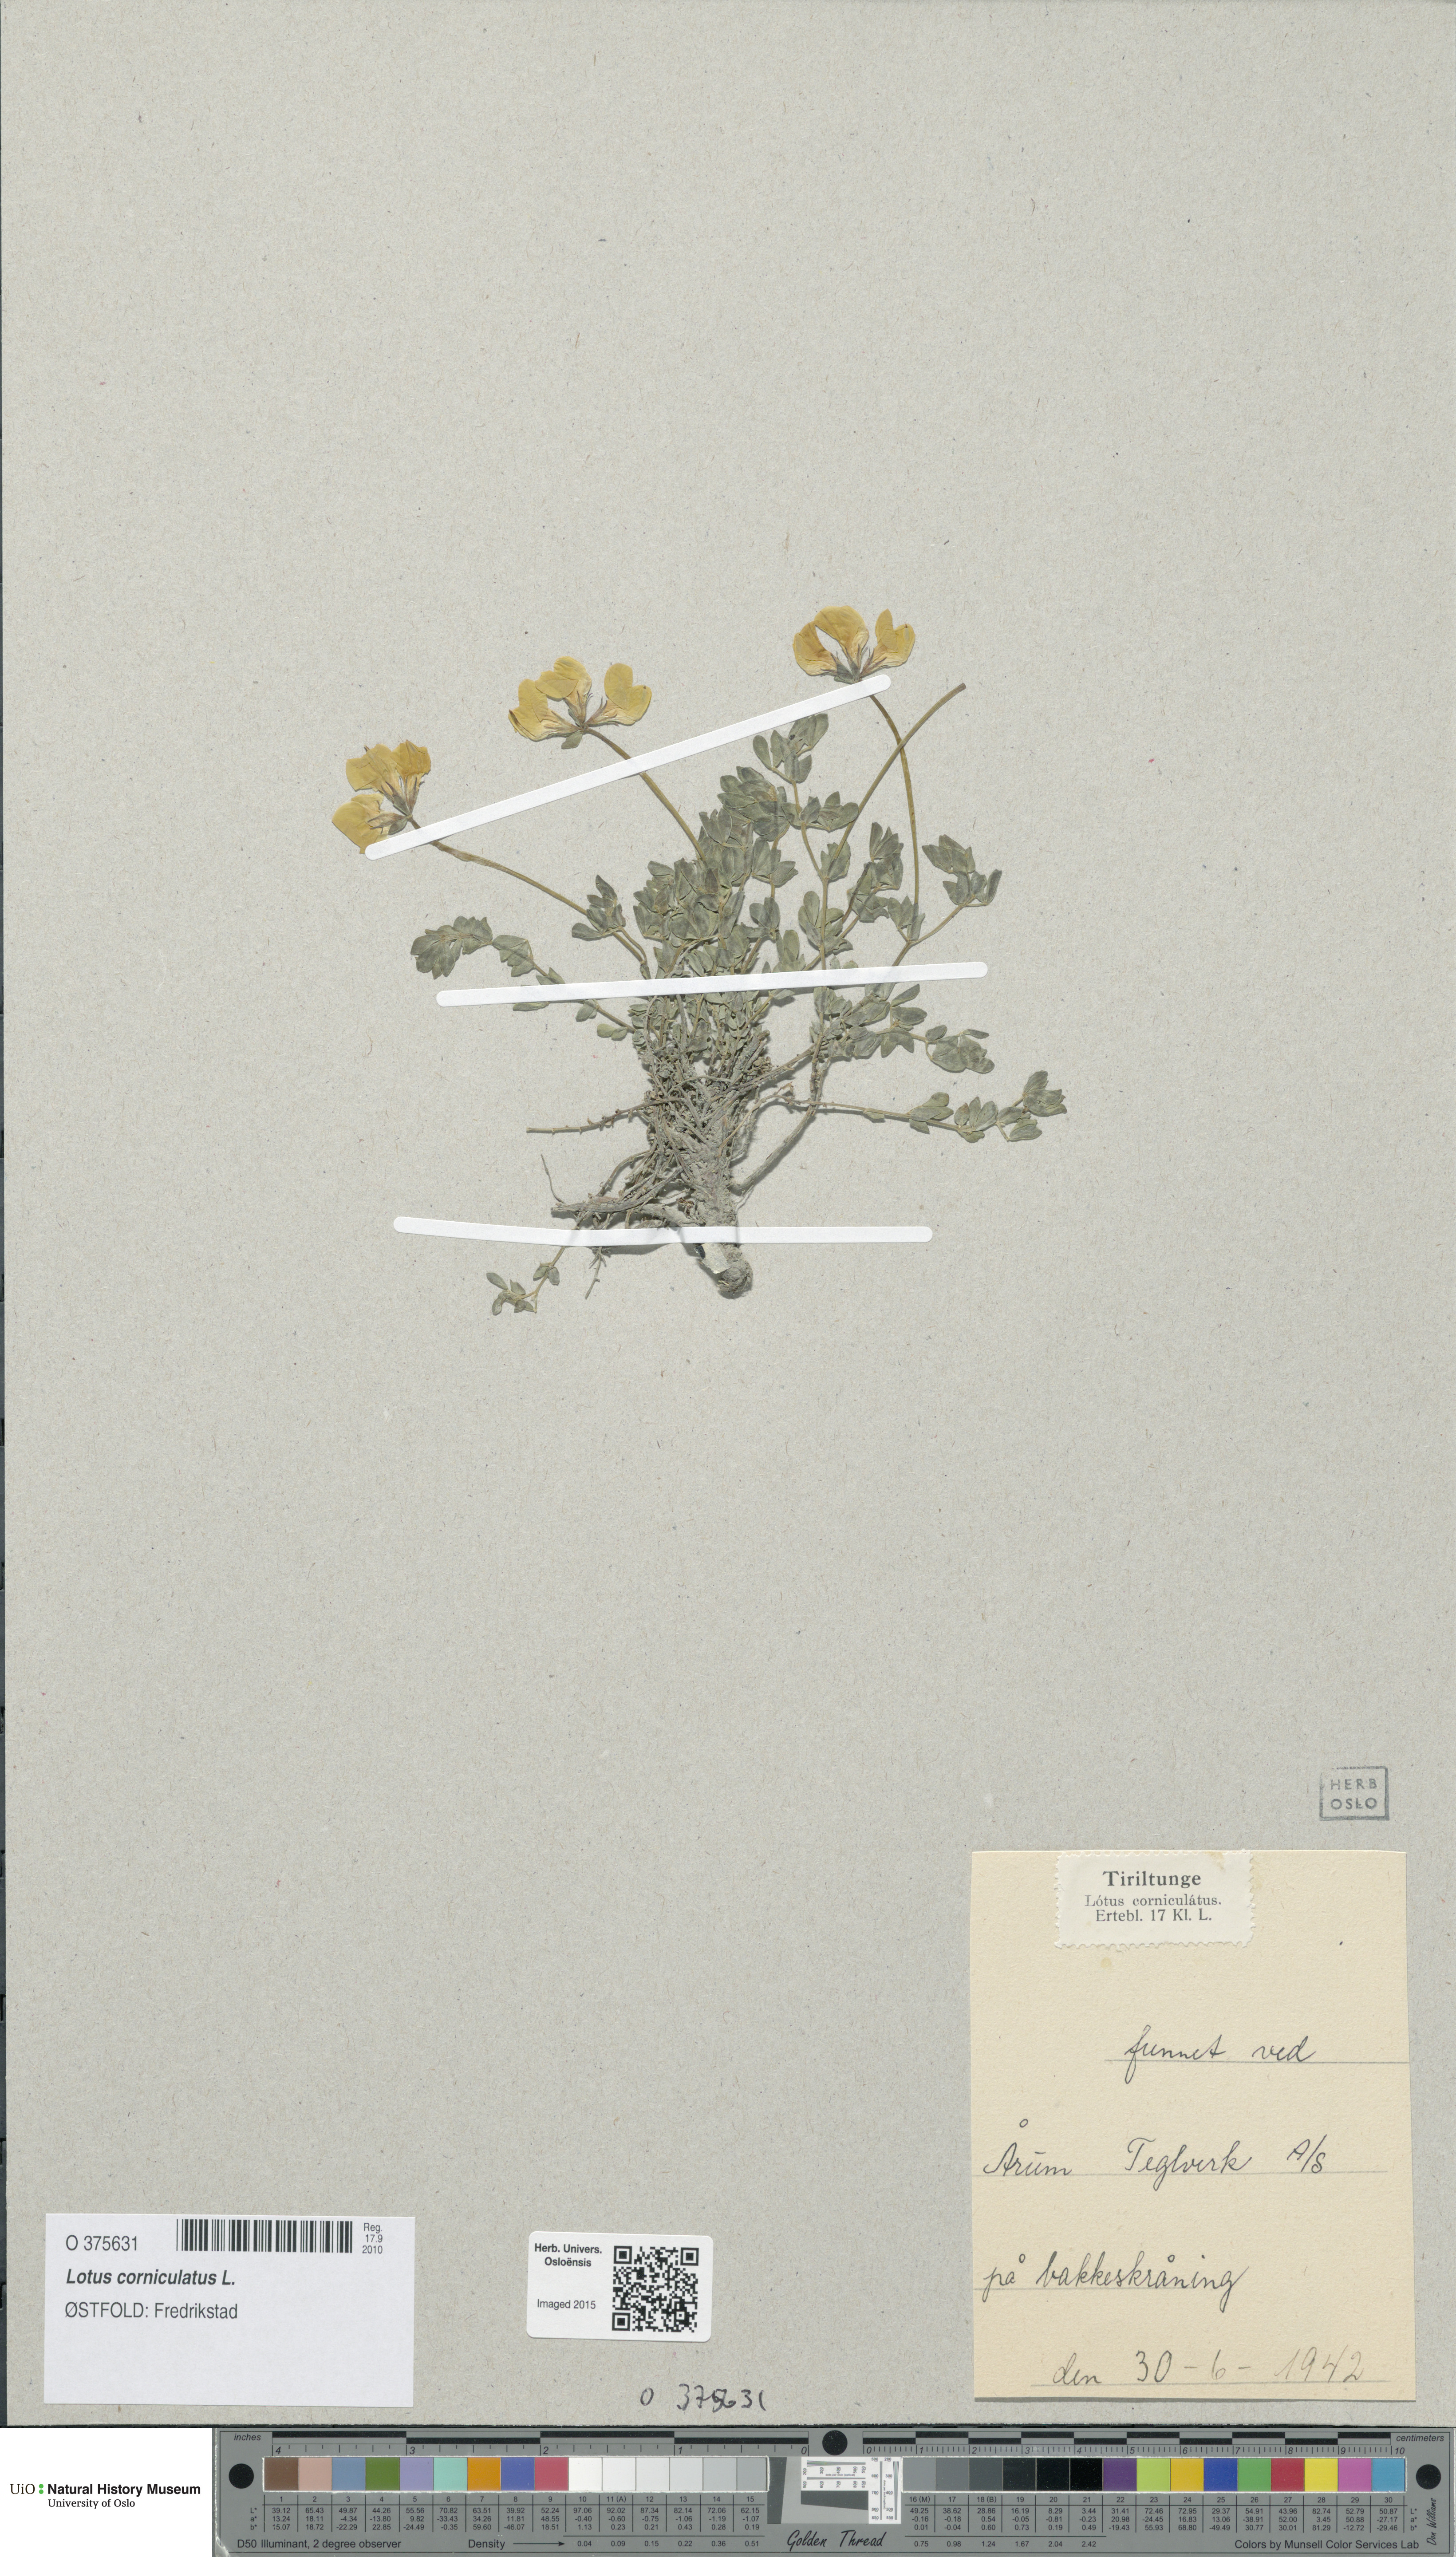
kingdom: Plantae
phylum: Tracheophyta
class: Magnoliopsida
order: Fabales
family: Fabaceae
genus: Lotus
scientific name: Lotus corniculatus
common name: Common bird's-foot-trefoil
